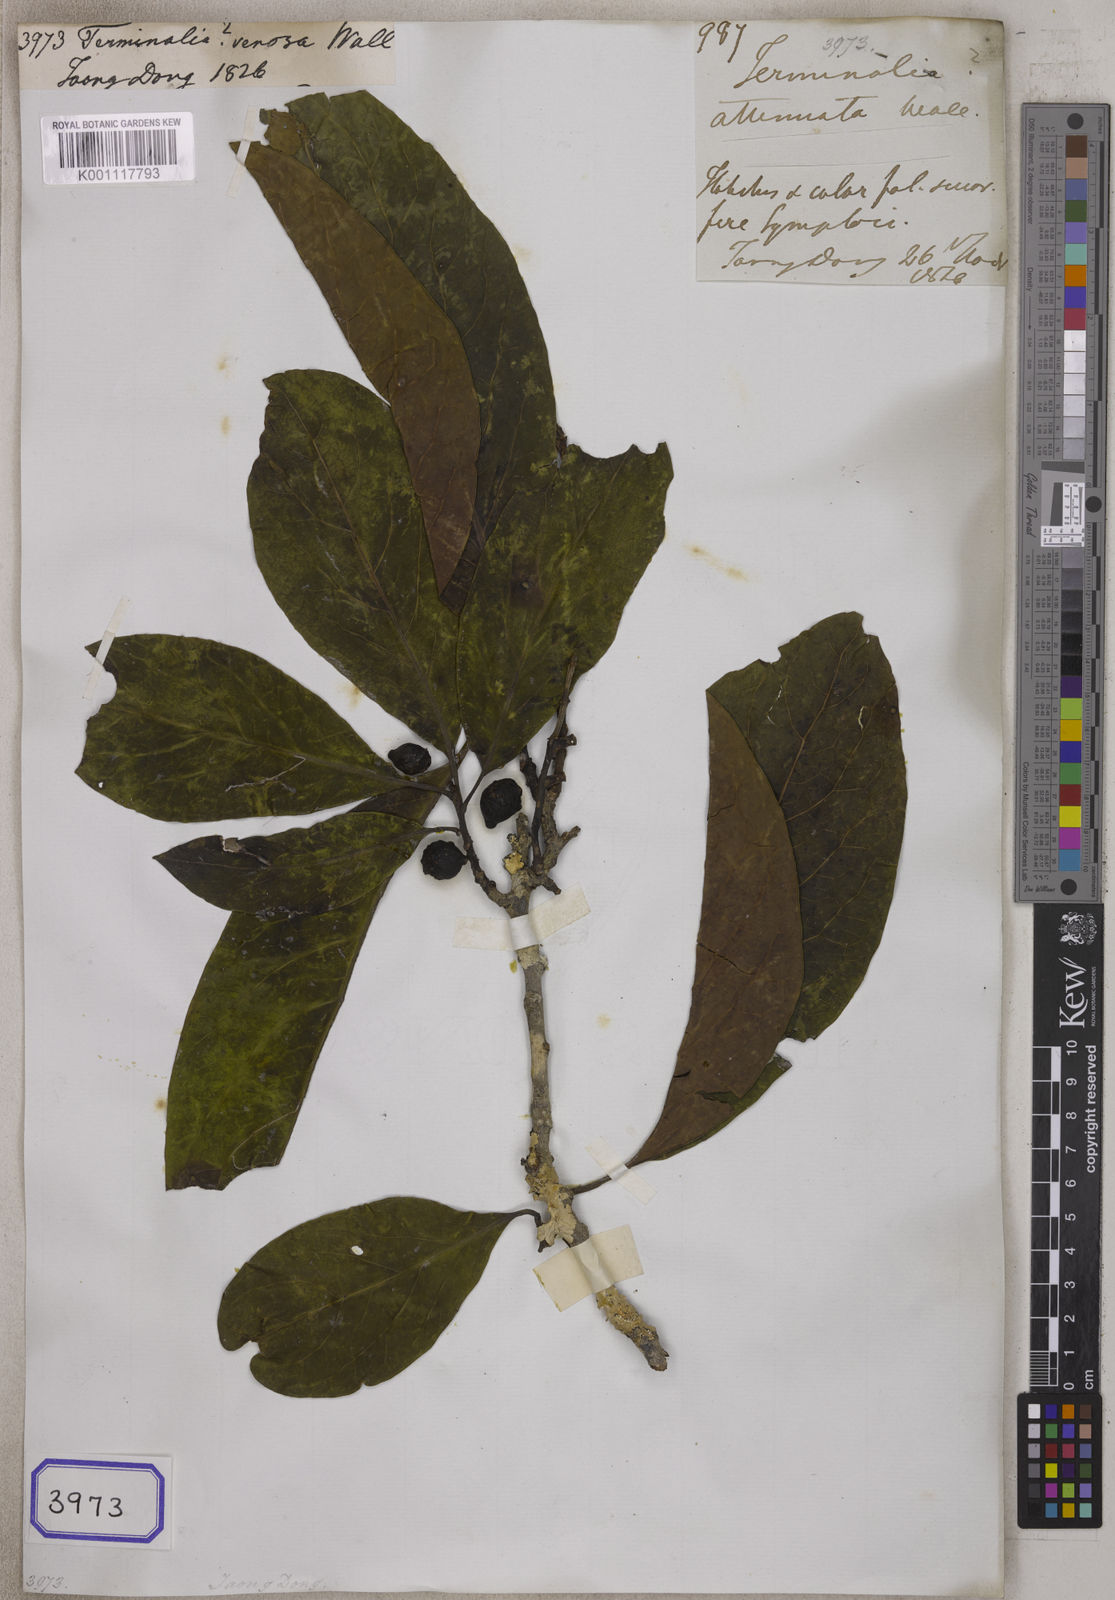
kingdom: Plantae
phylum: Tracheophyta
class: Magnoliopsida
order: Myrtales
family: Combretaceae
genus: Terminalia
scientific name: Terminalia venosa
